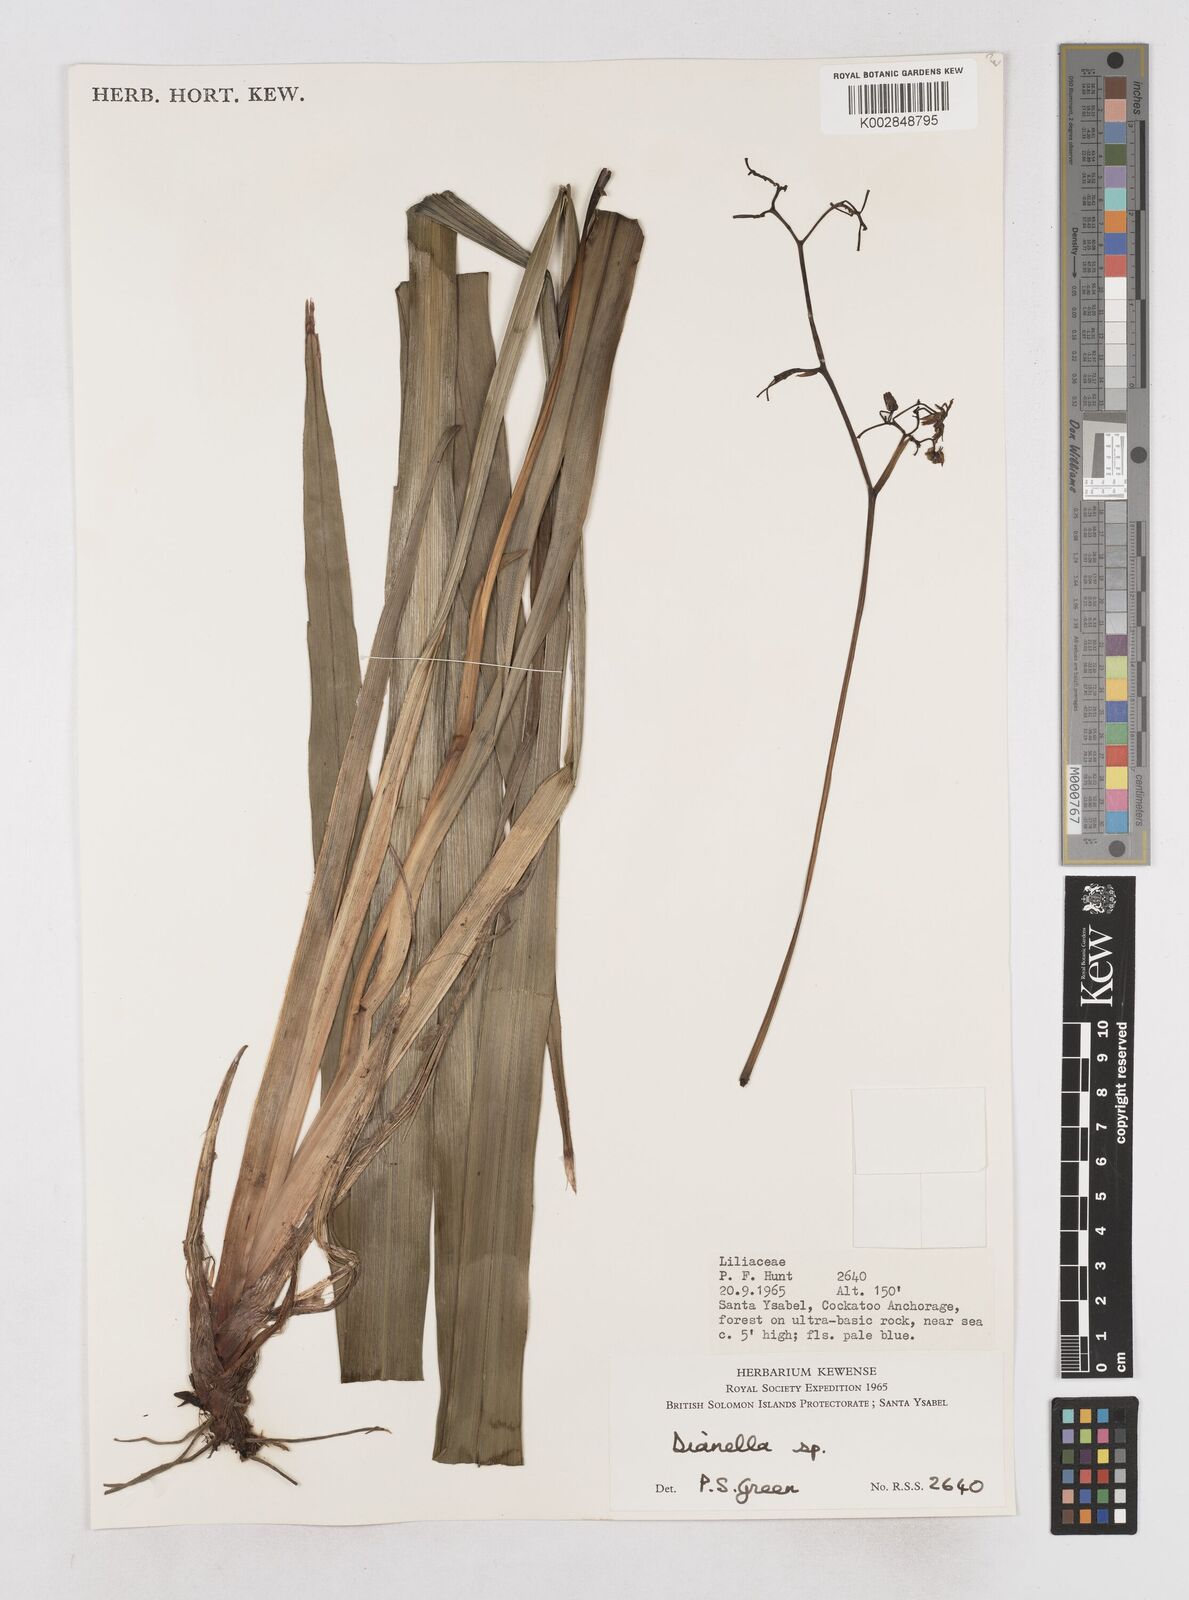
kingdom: Plantae
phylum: Tracheophyta
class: Liliopsida
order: Asparagales
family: Asphodelaceae
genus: Dianella
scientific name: Dianella
